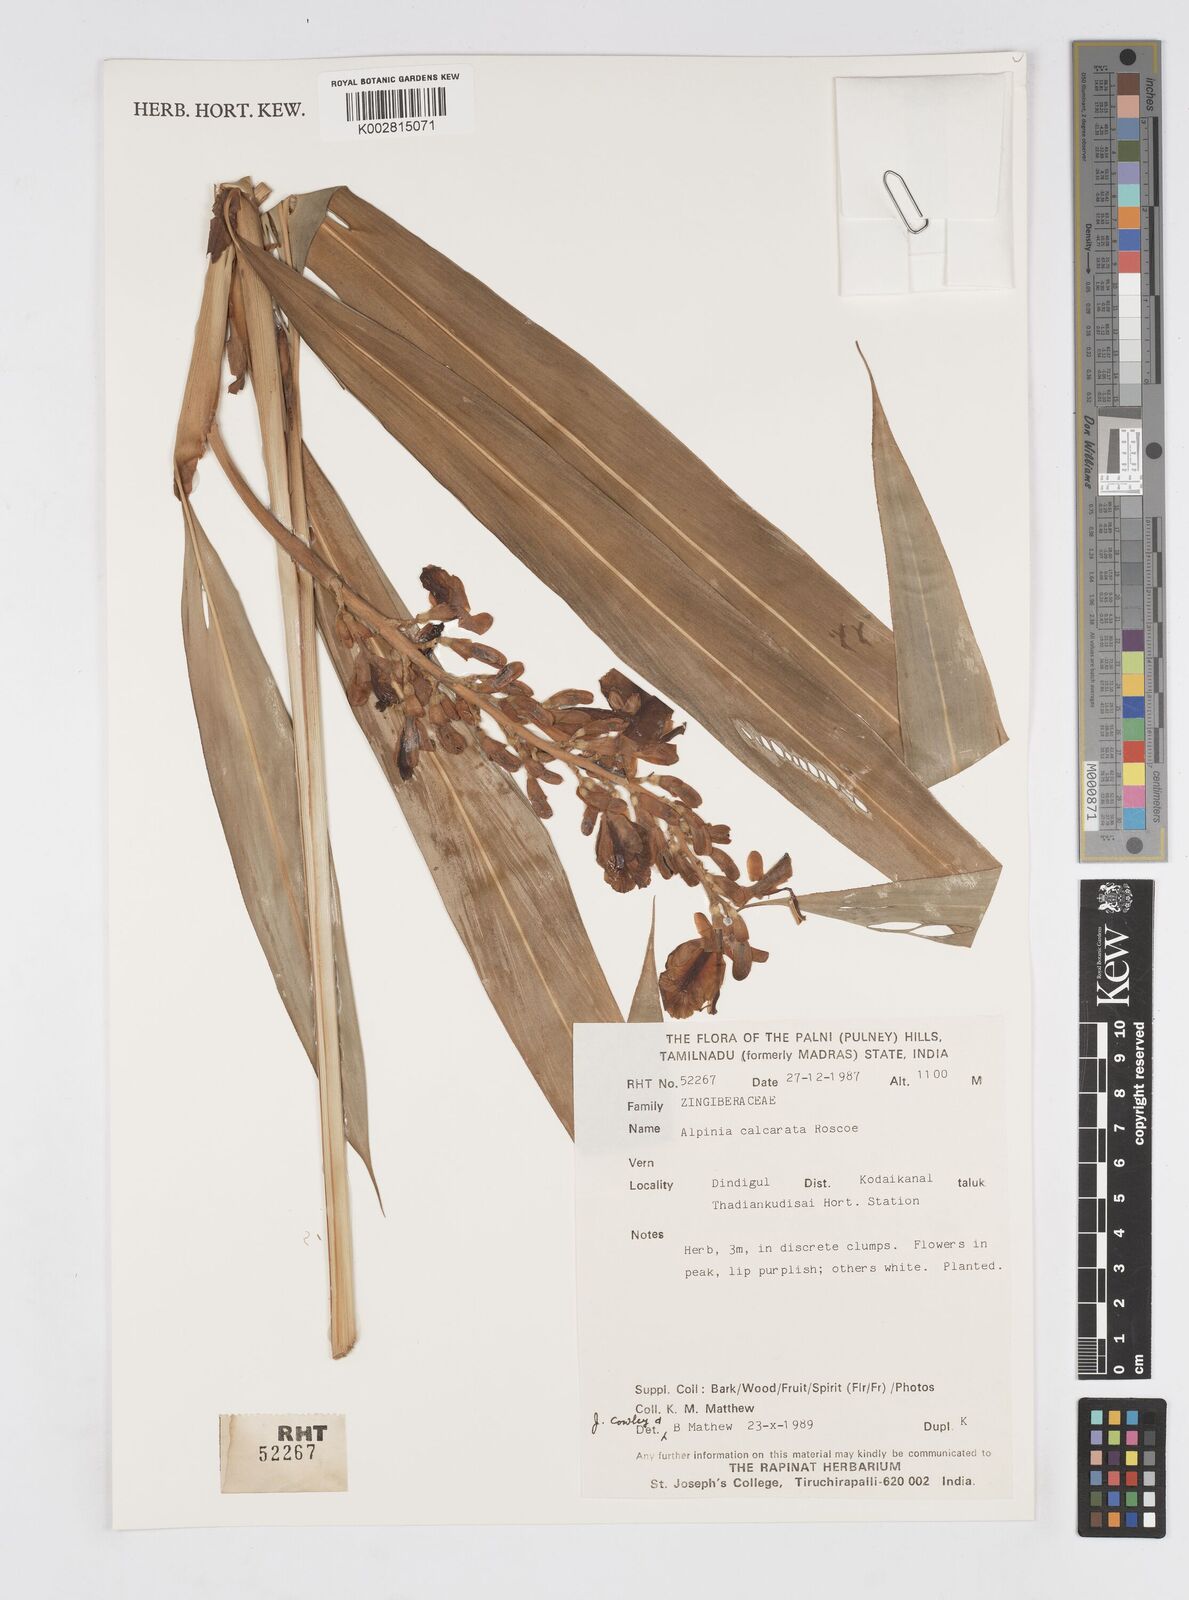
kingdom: Plantae
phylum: Tracheophyta
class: Liliopsida
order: Zingiberales
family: Zingiberaceae
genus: Alpinia
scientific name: Alpinia calcarata
